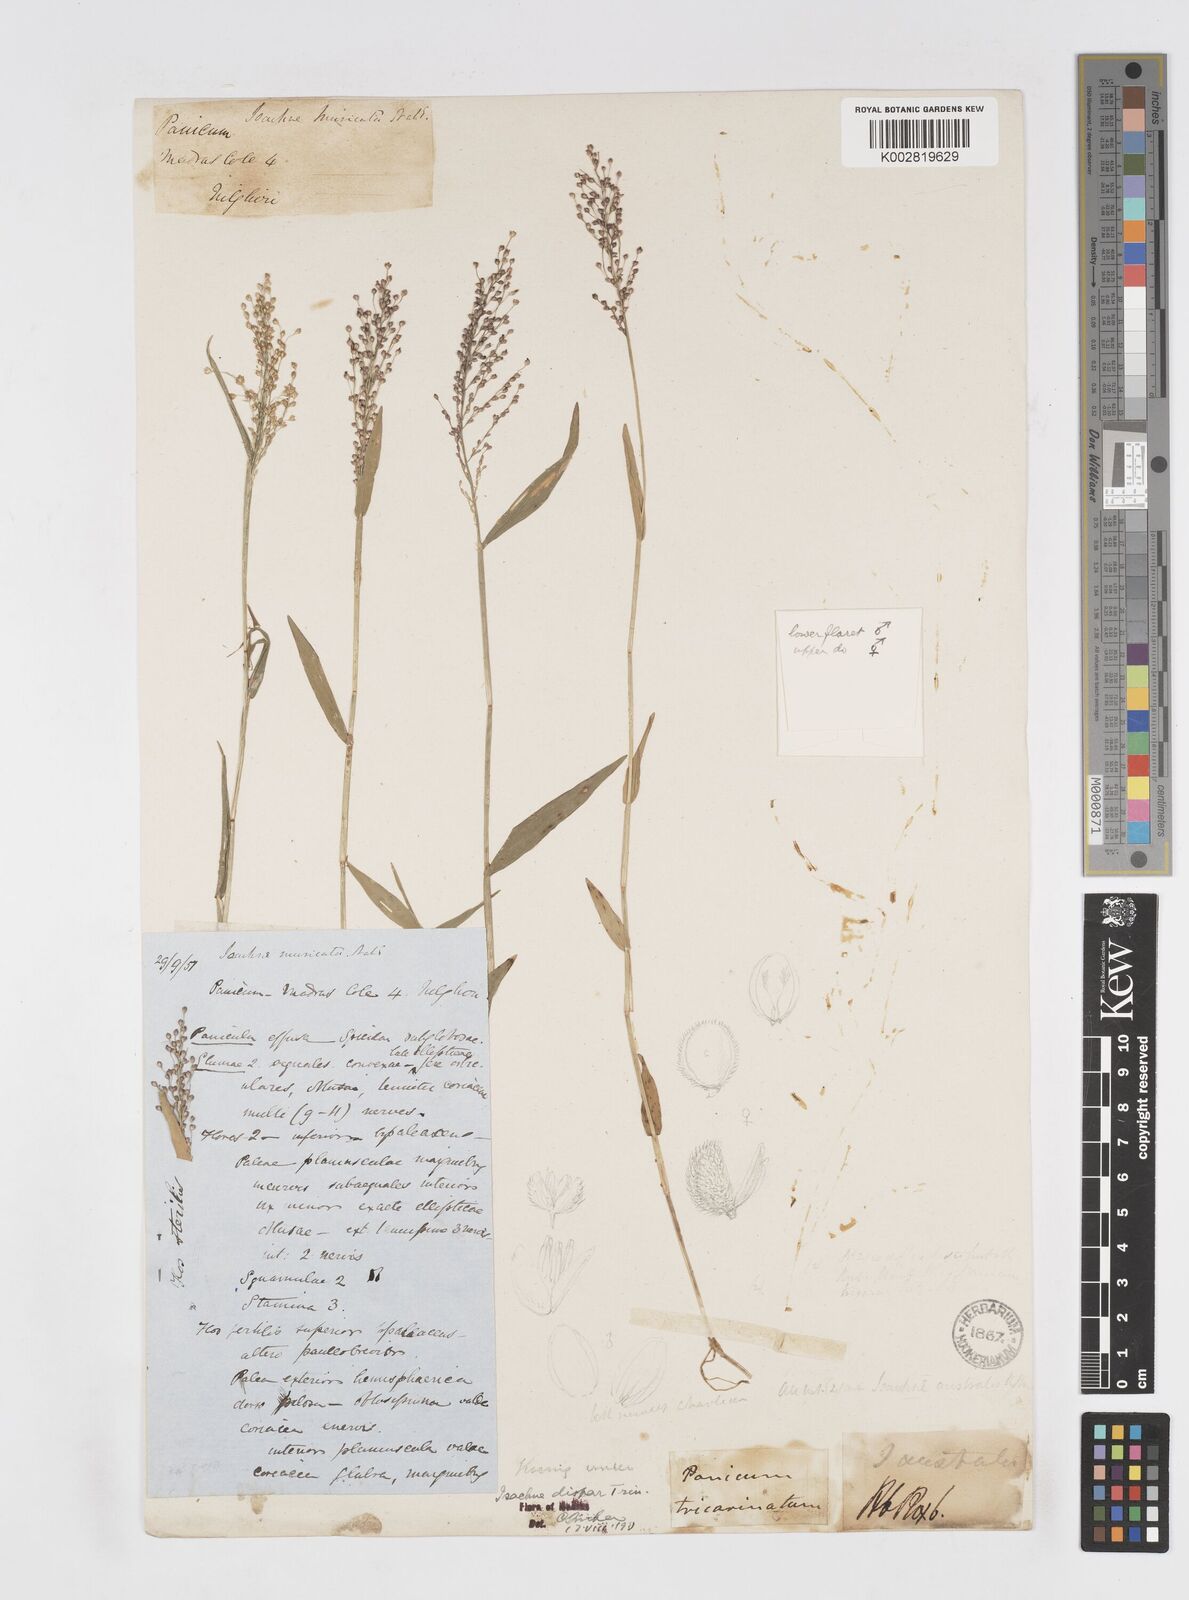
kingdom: Plantae
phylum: Tracheophyta
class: Liliopsida
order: Poales
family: Poaceae
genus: Isachne
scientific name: Isachne globosa
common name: Swamp millet
